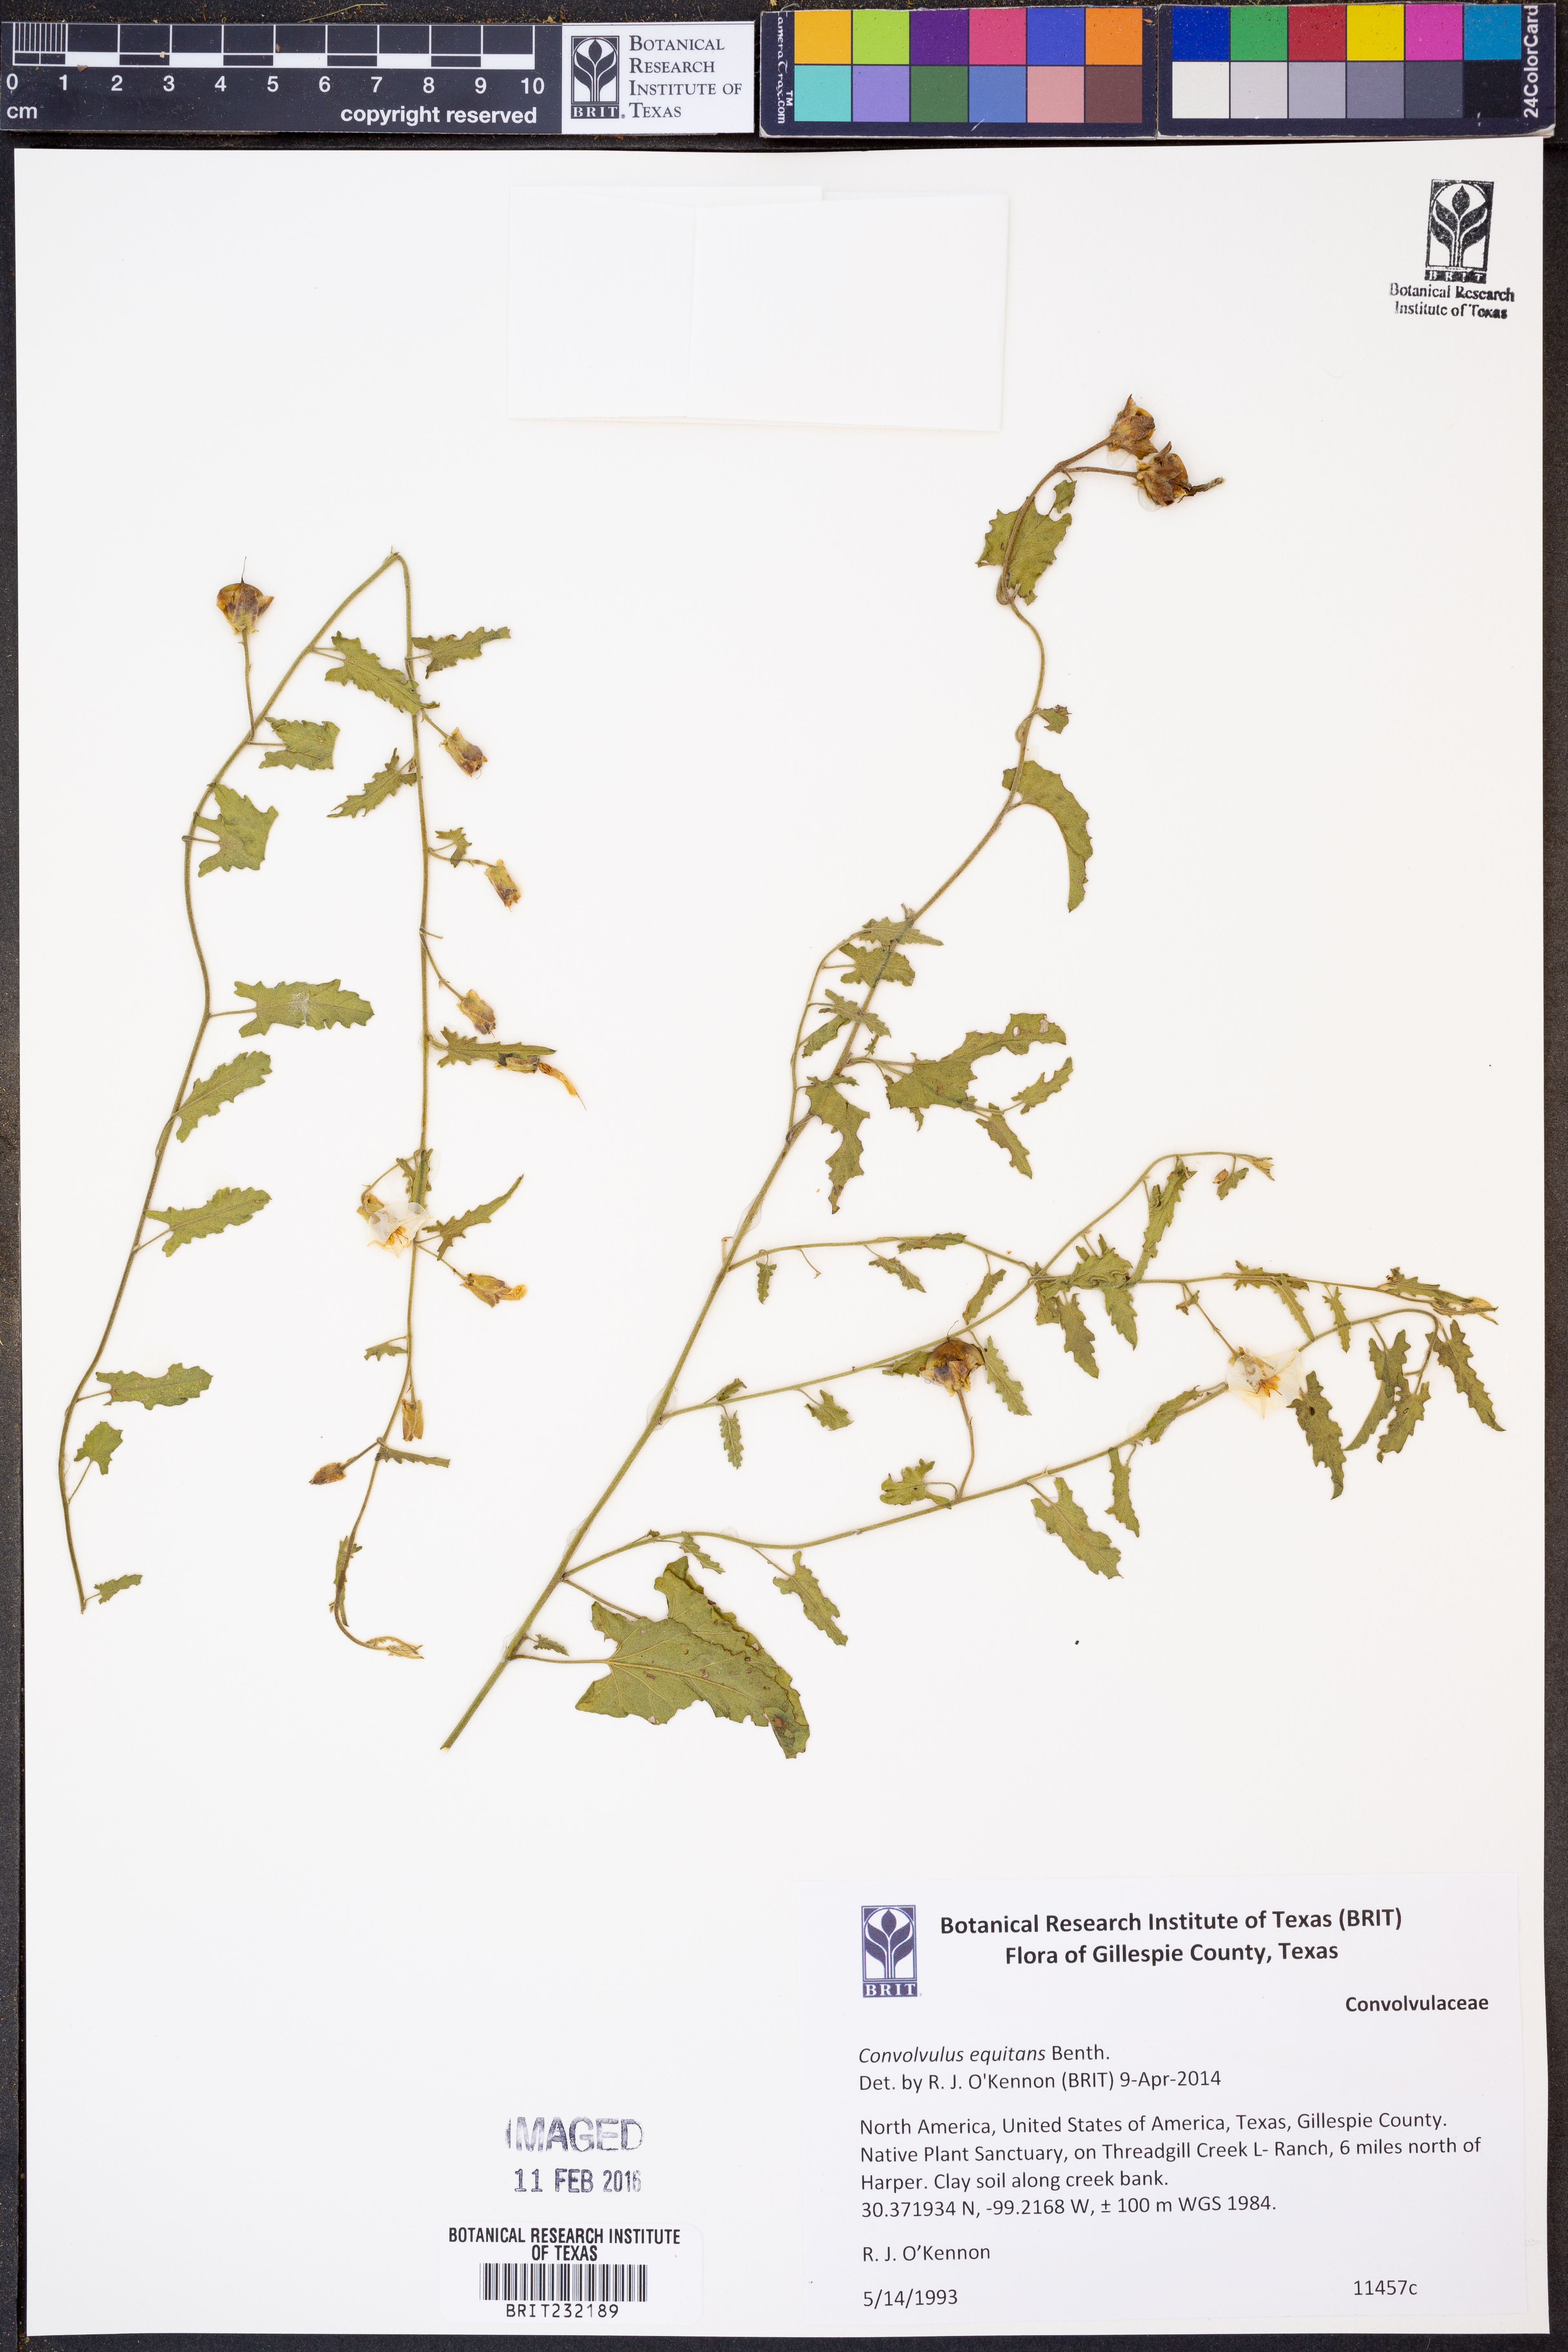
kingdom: Plantae
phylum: Tracheophyta
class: Magnoliopsida
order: Solanales
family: Convolvulaceae
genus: Convolvulus
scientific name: Convolvulus equitans
